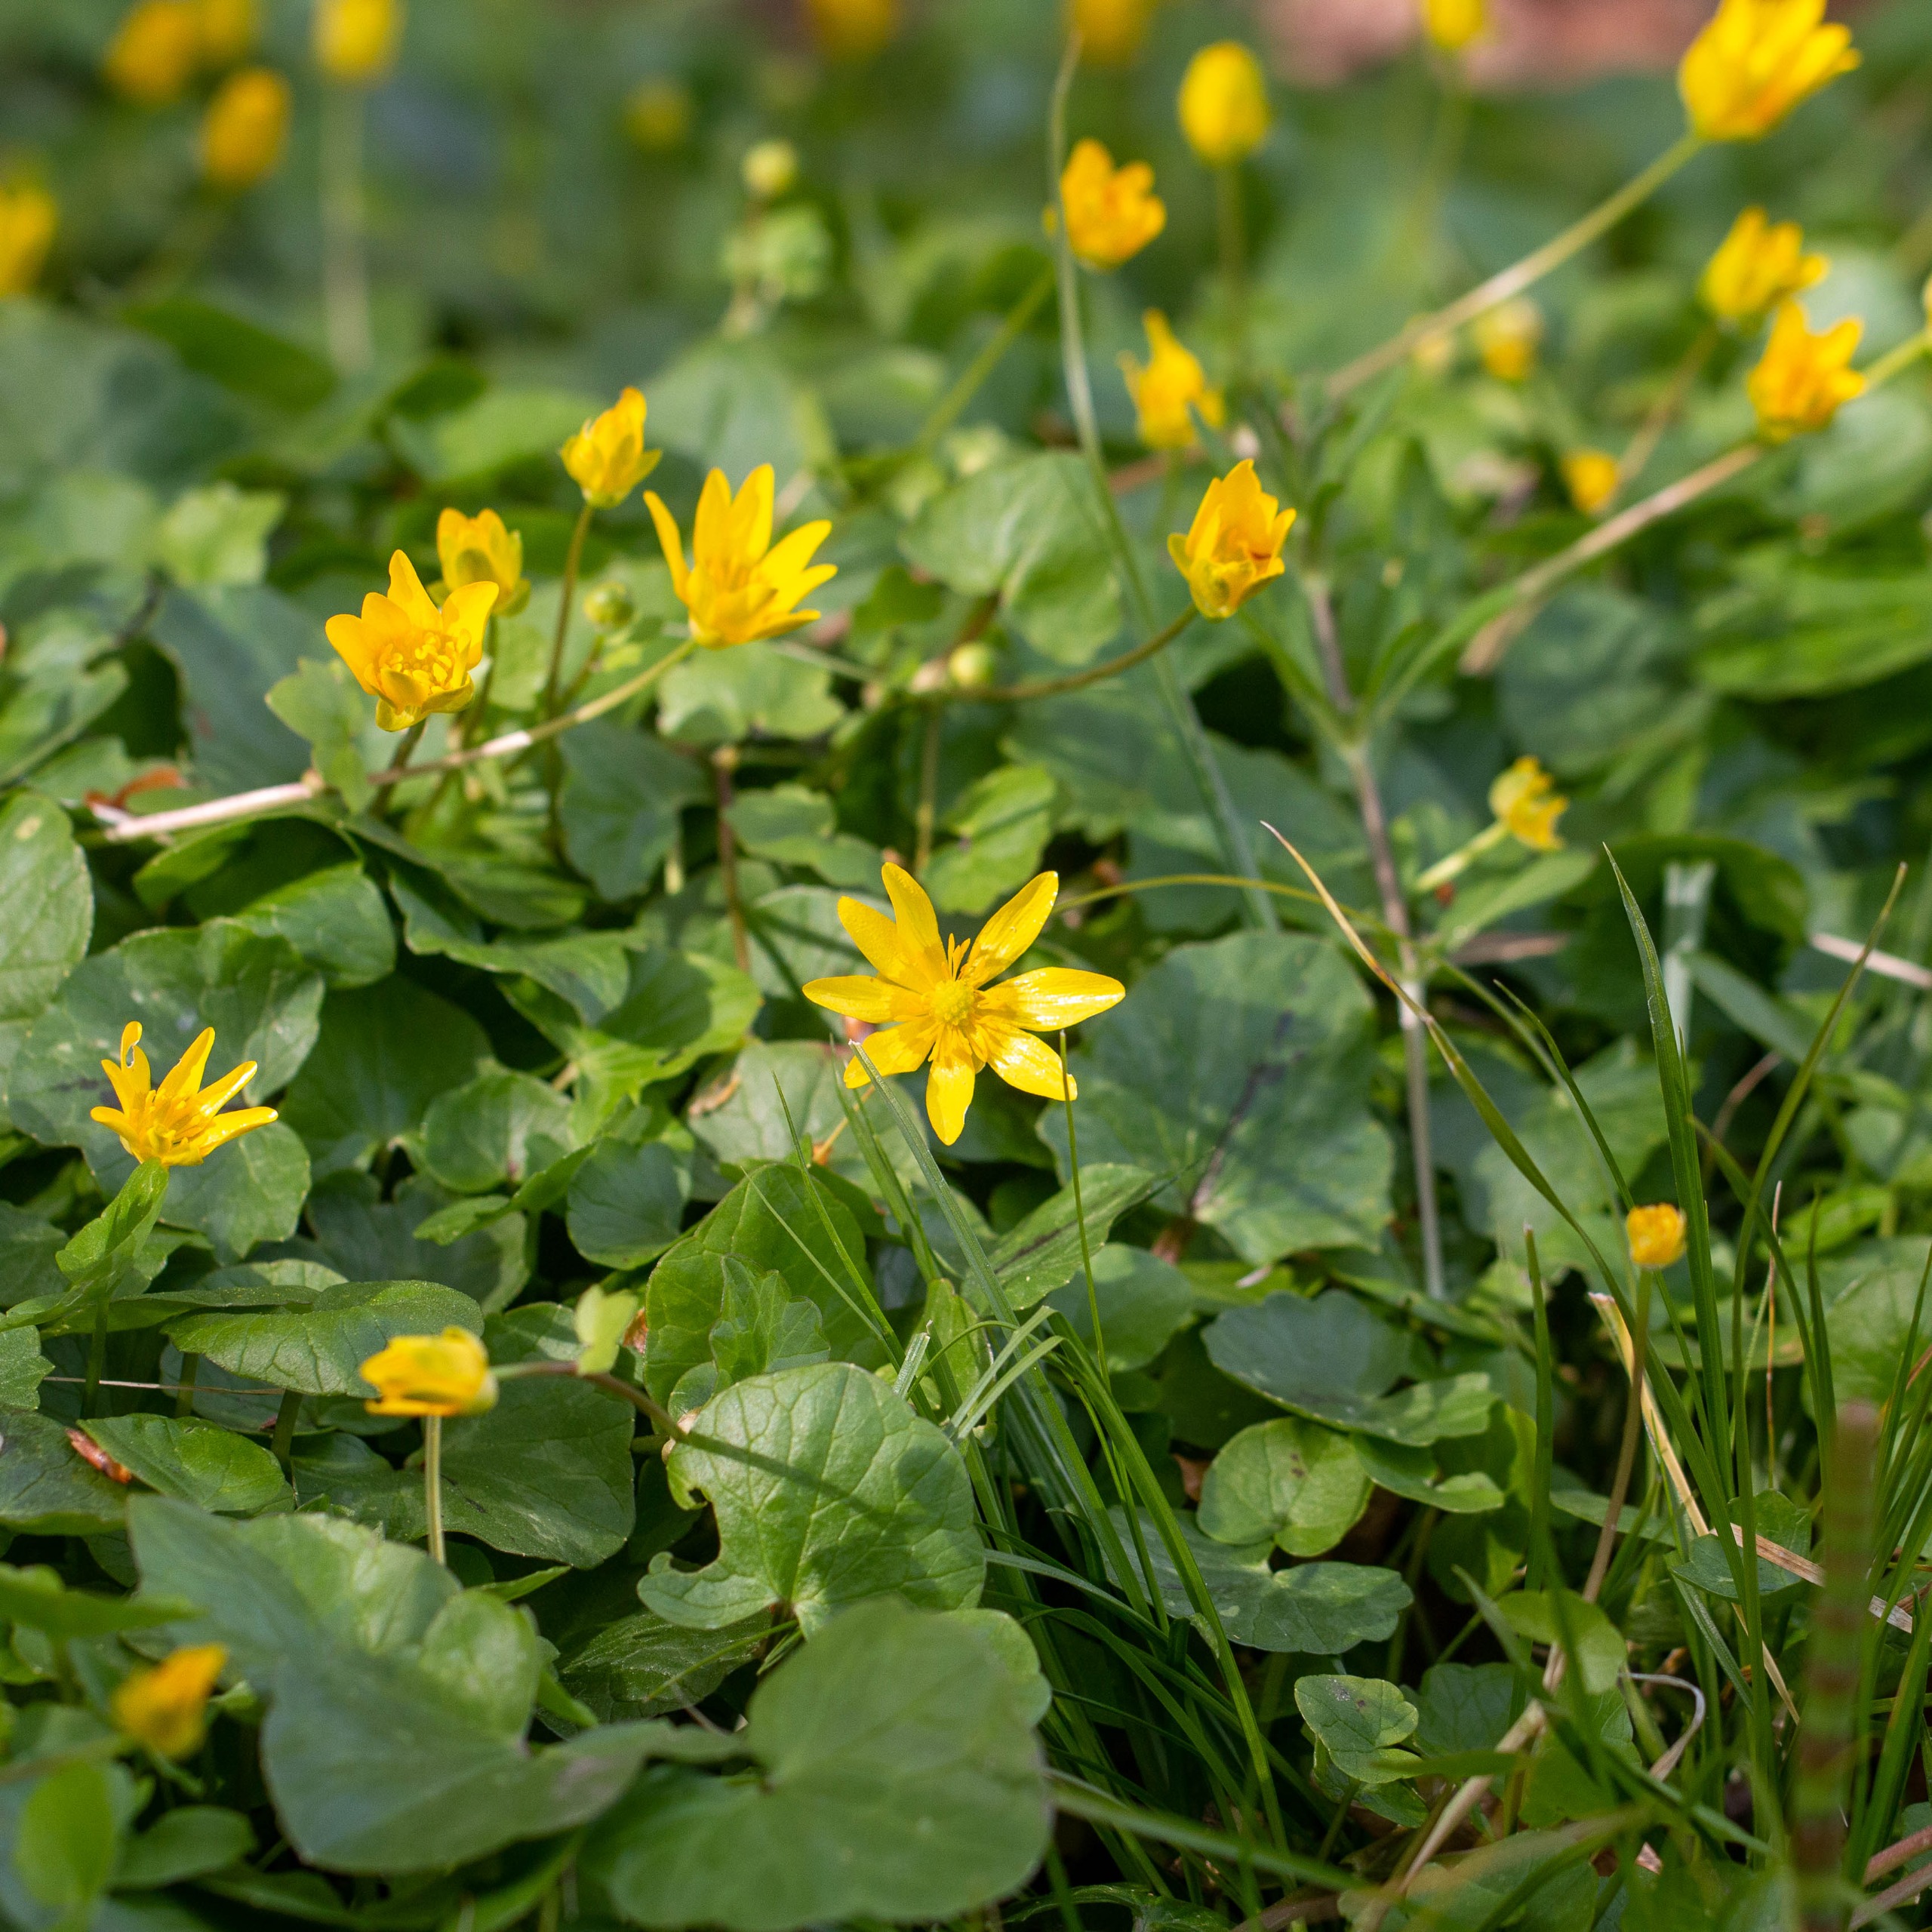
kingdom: Plantae
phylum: Tracheophyta
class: Magnoliopsida
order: Ranunculales
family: Ranunculaceae
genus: Ficaria
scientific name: Ficaria verna
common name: Vorterod
